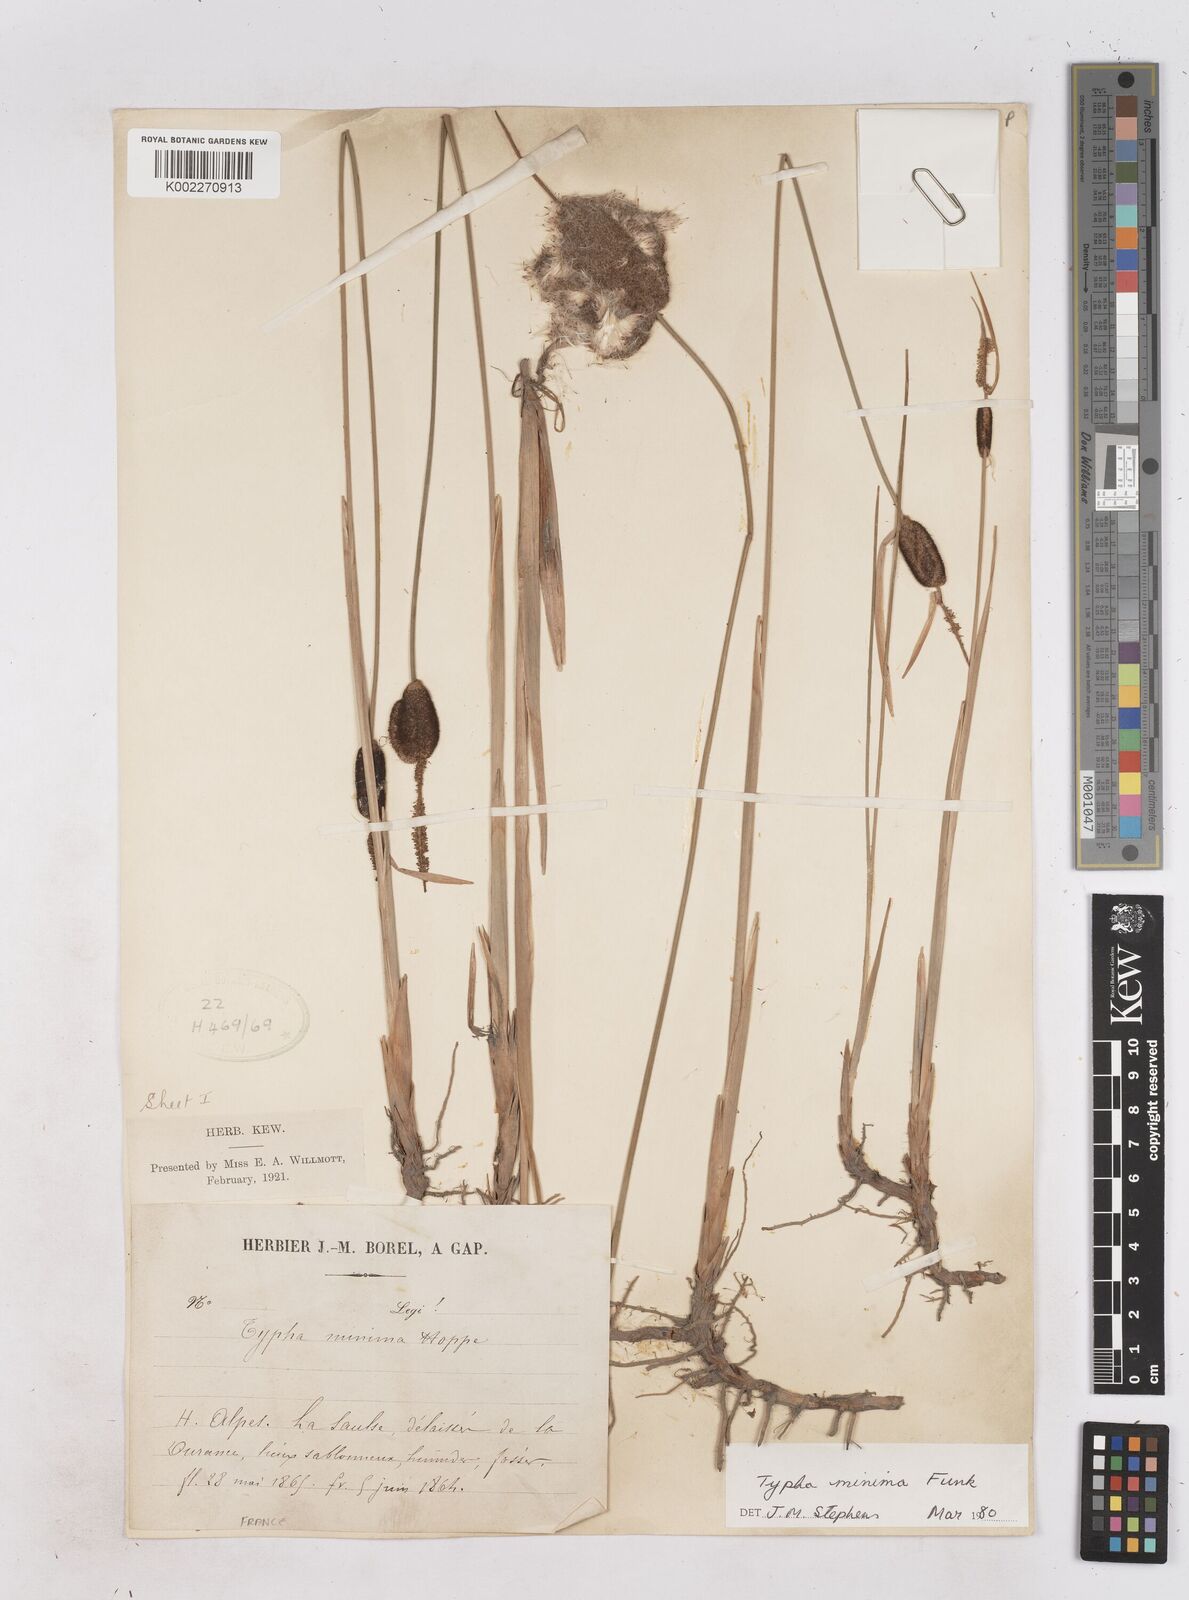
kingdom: Plantae
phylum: Tracheophyta
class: Liliopsida
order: Poales
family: Typhaceae
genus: Typha
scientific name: Typha
